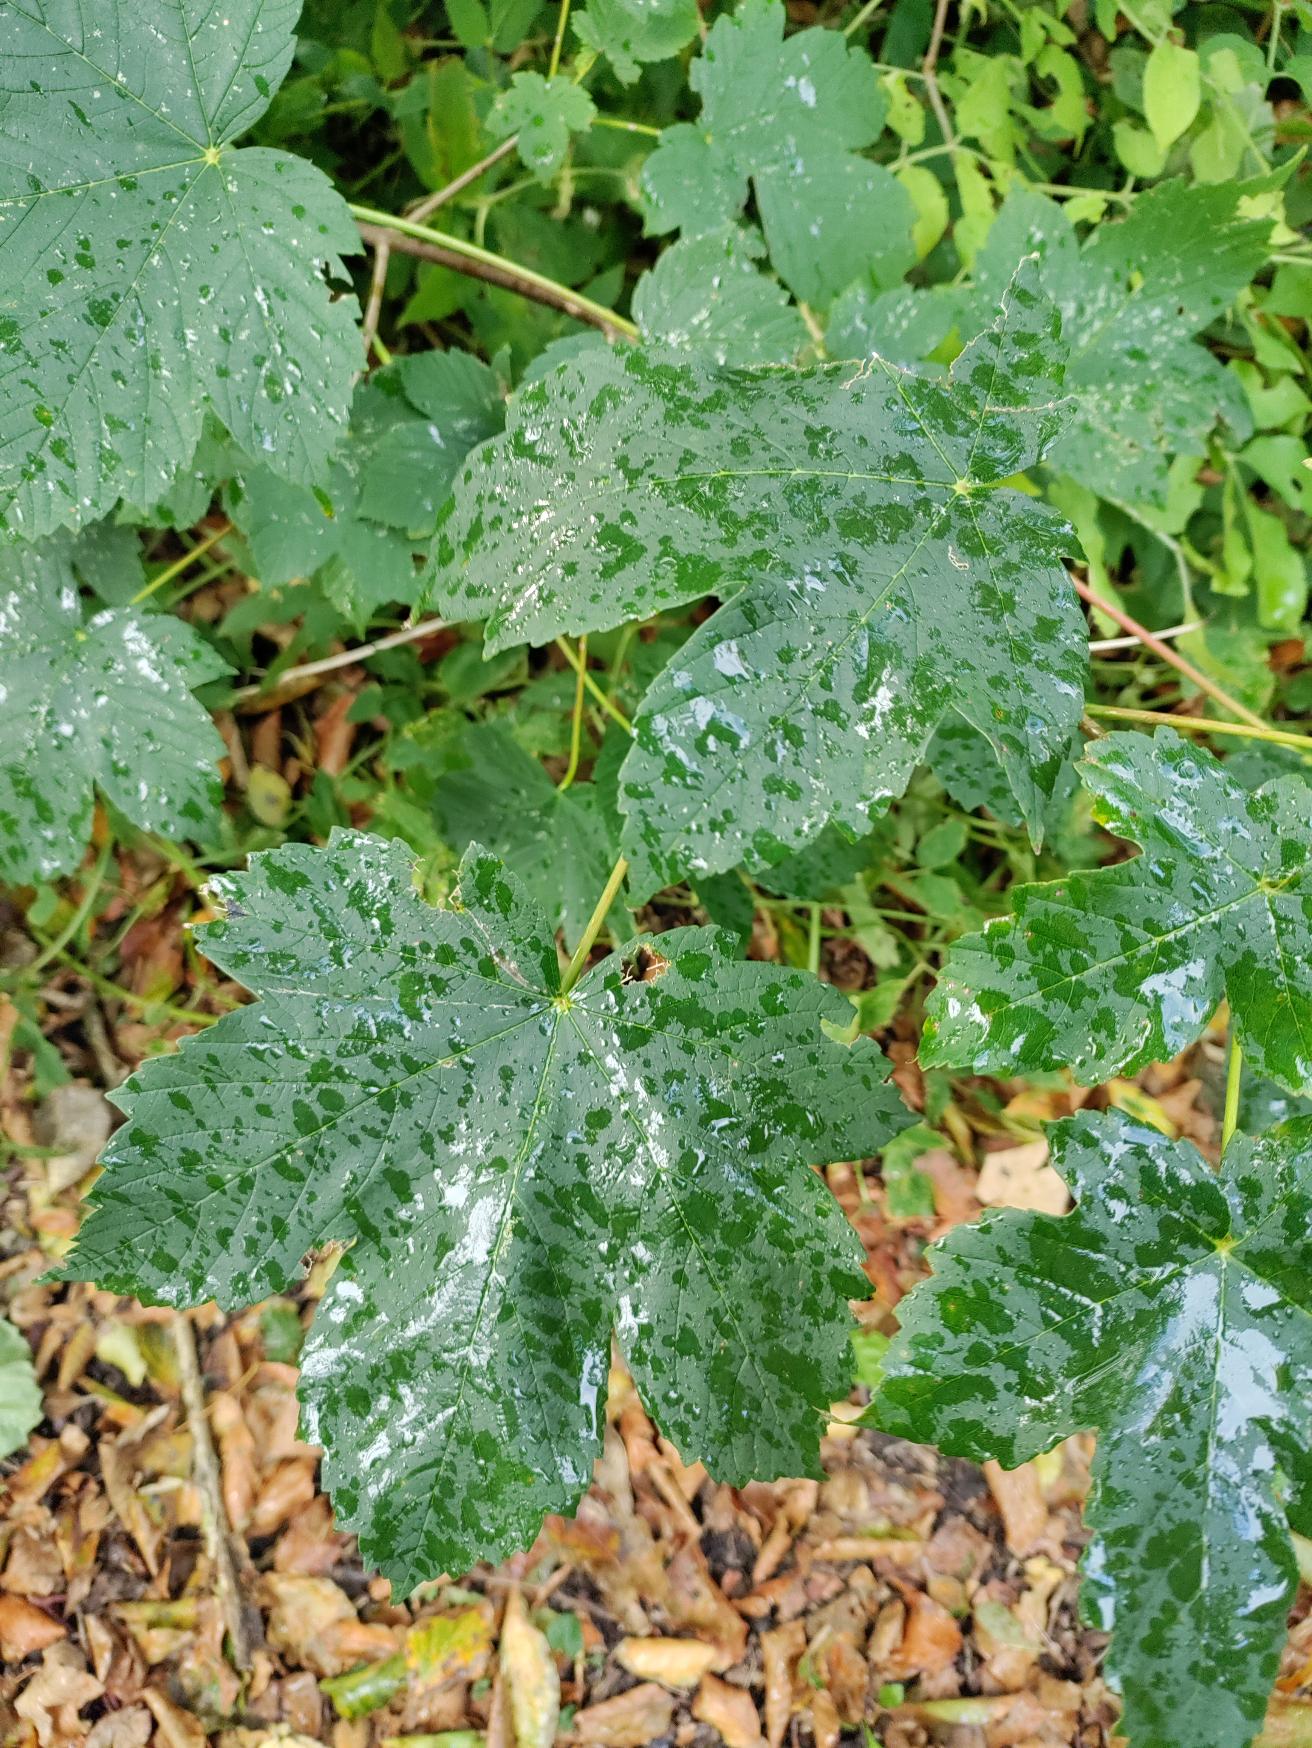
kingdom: Plantae
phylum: Tracheophyta
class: Magnoliopsida
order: Sapindales
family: Sapindaceae
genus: Acer
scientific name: Acer pseudoplatanus
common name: Ahorn
